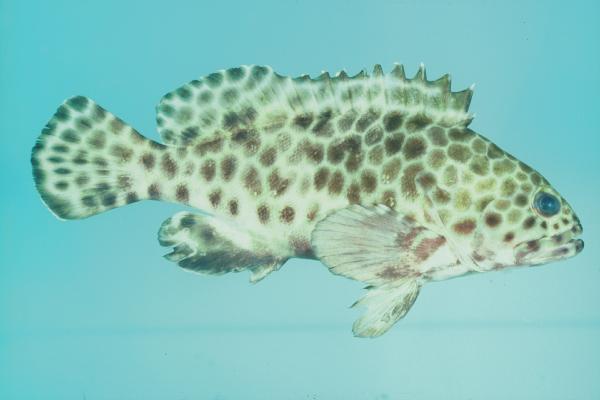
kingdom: Animalia
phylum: Chordata
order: Perciformes
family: Serranidae
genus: Epinephelus
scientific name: Epinephelus quoyanus
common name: Longfin grouper
